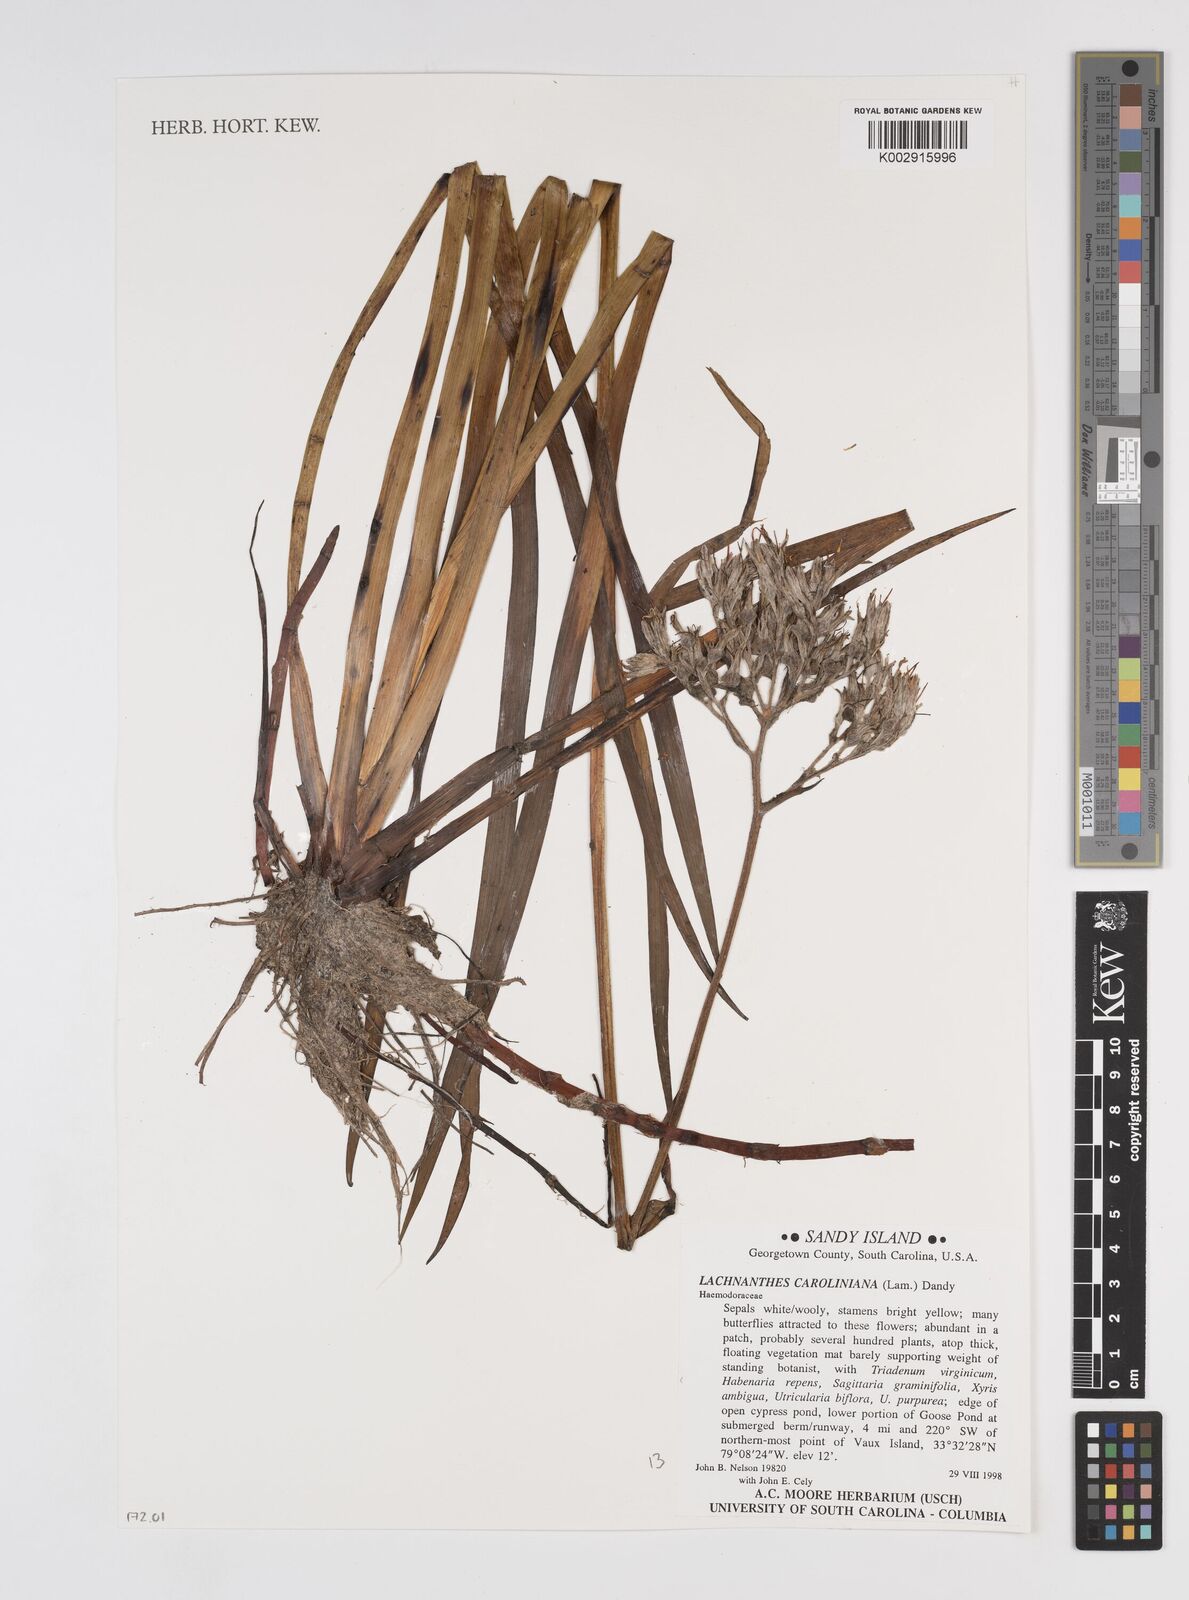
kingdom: Plantae
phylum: Tracheophyta
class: Liliopsida
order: Commelinales
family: Haemodoraceae
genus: Lachnanthes
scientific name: Lachnanthes caroliniana
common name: Carolina redroot
